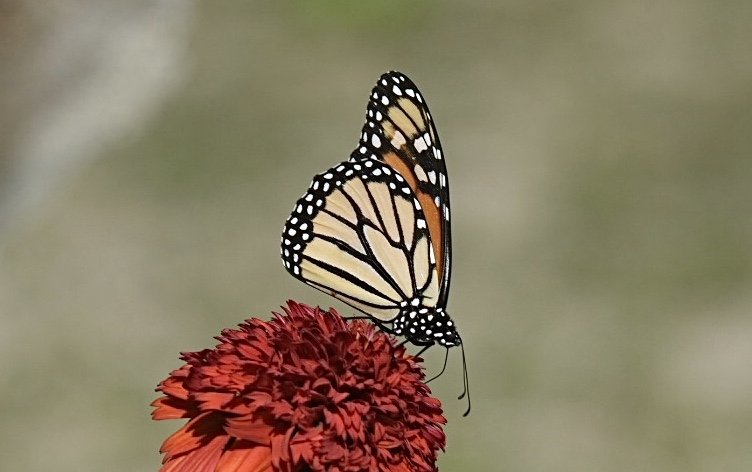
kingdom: Animalia
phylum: Arthropoda
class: Insecta
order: Lepidoptera
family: Nymphalidae
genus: Danaus
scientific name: Danaus plexippus
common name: Monarch
